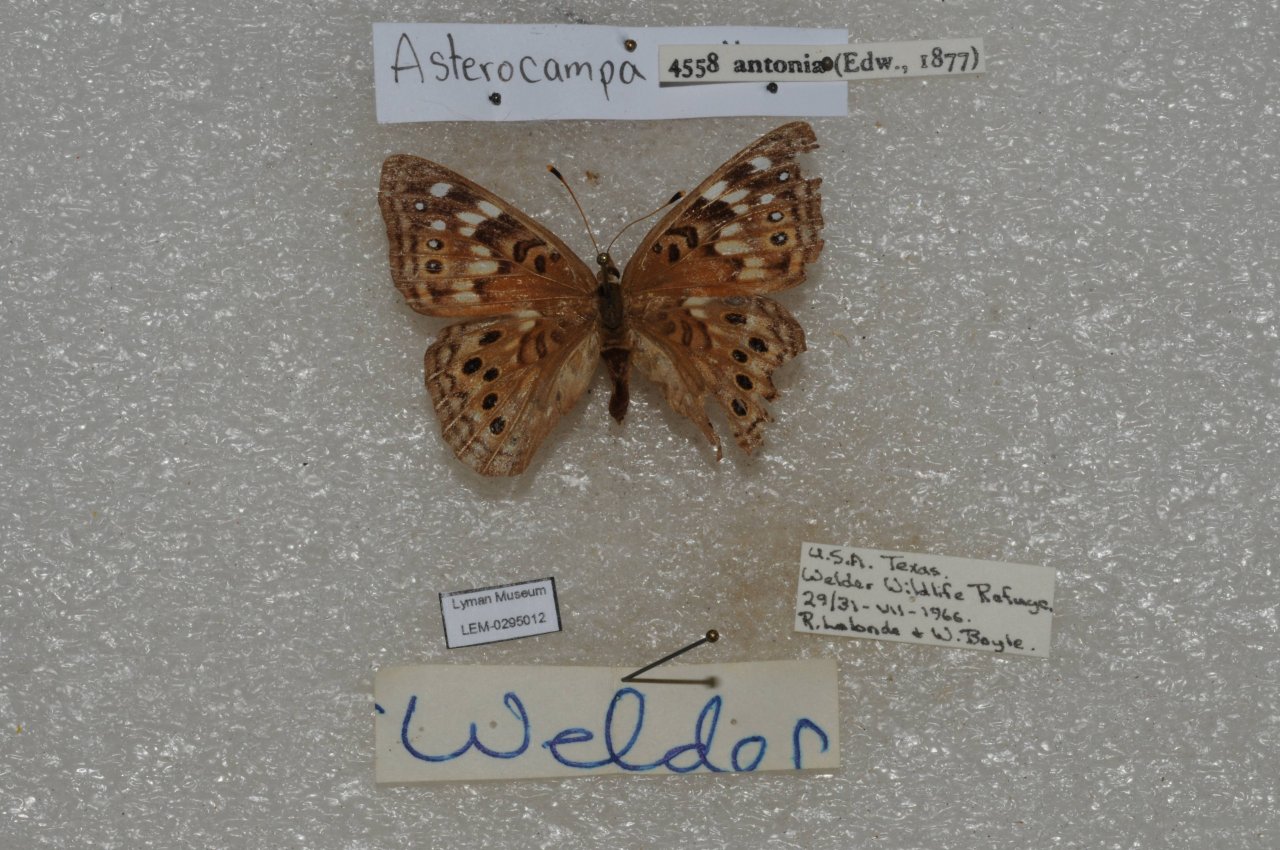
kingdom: Animalia
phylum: Arthropoda
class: Insecta
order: Lepidoptera
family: Nymphalidae
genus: Asterocampa
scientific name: Asterocampa celtis
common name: Hackberry Emperor
